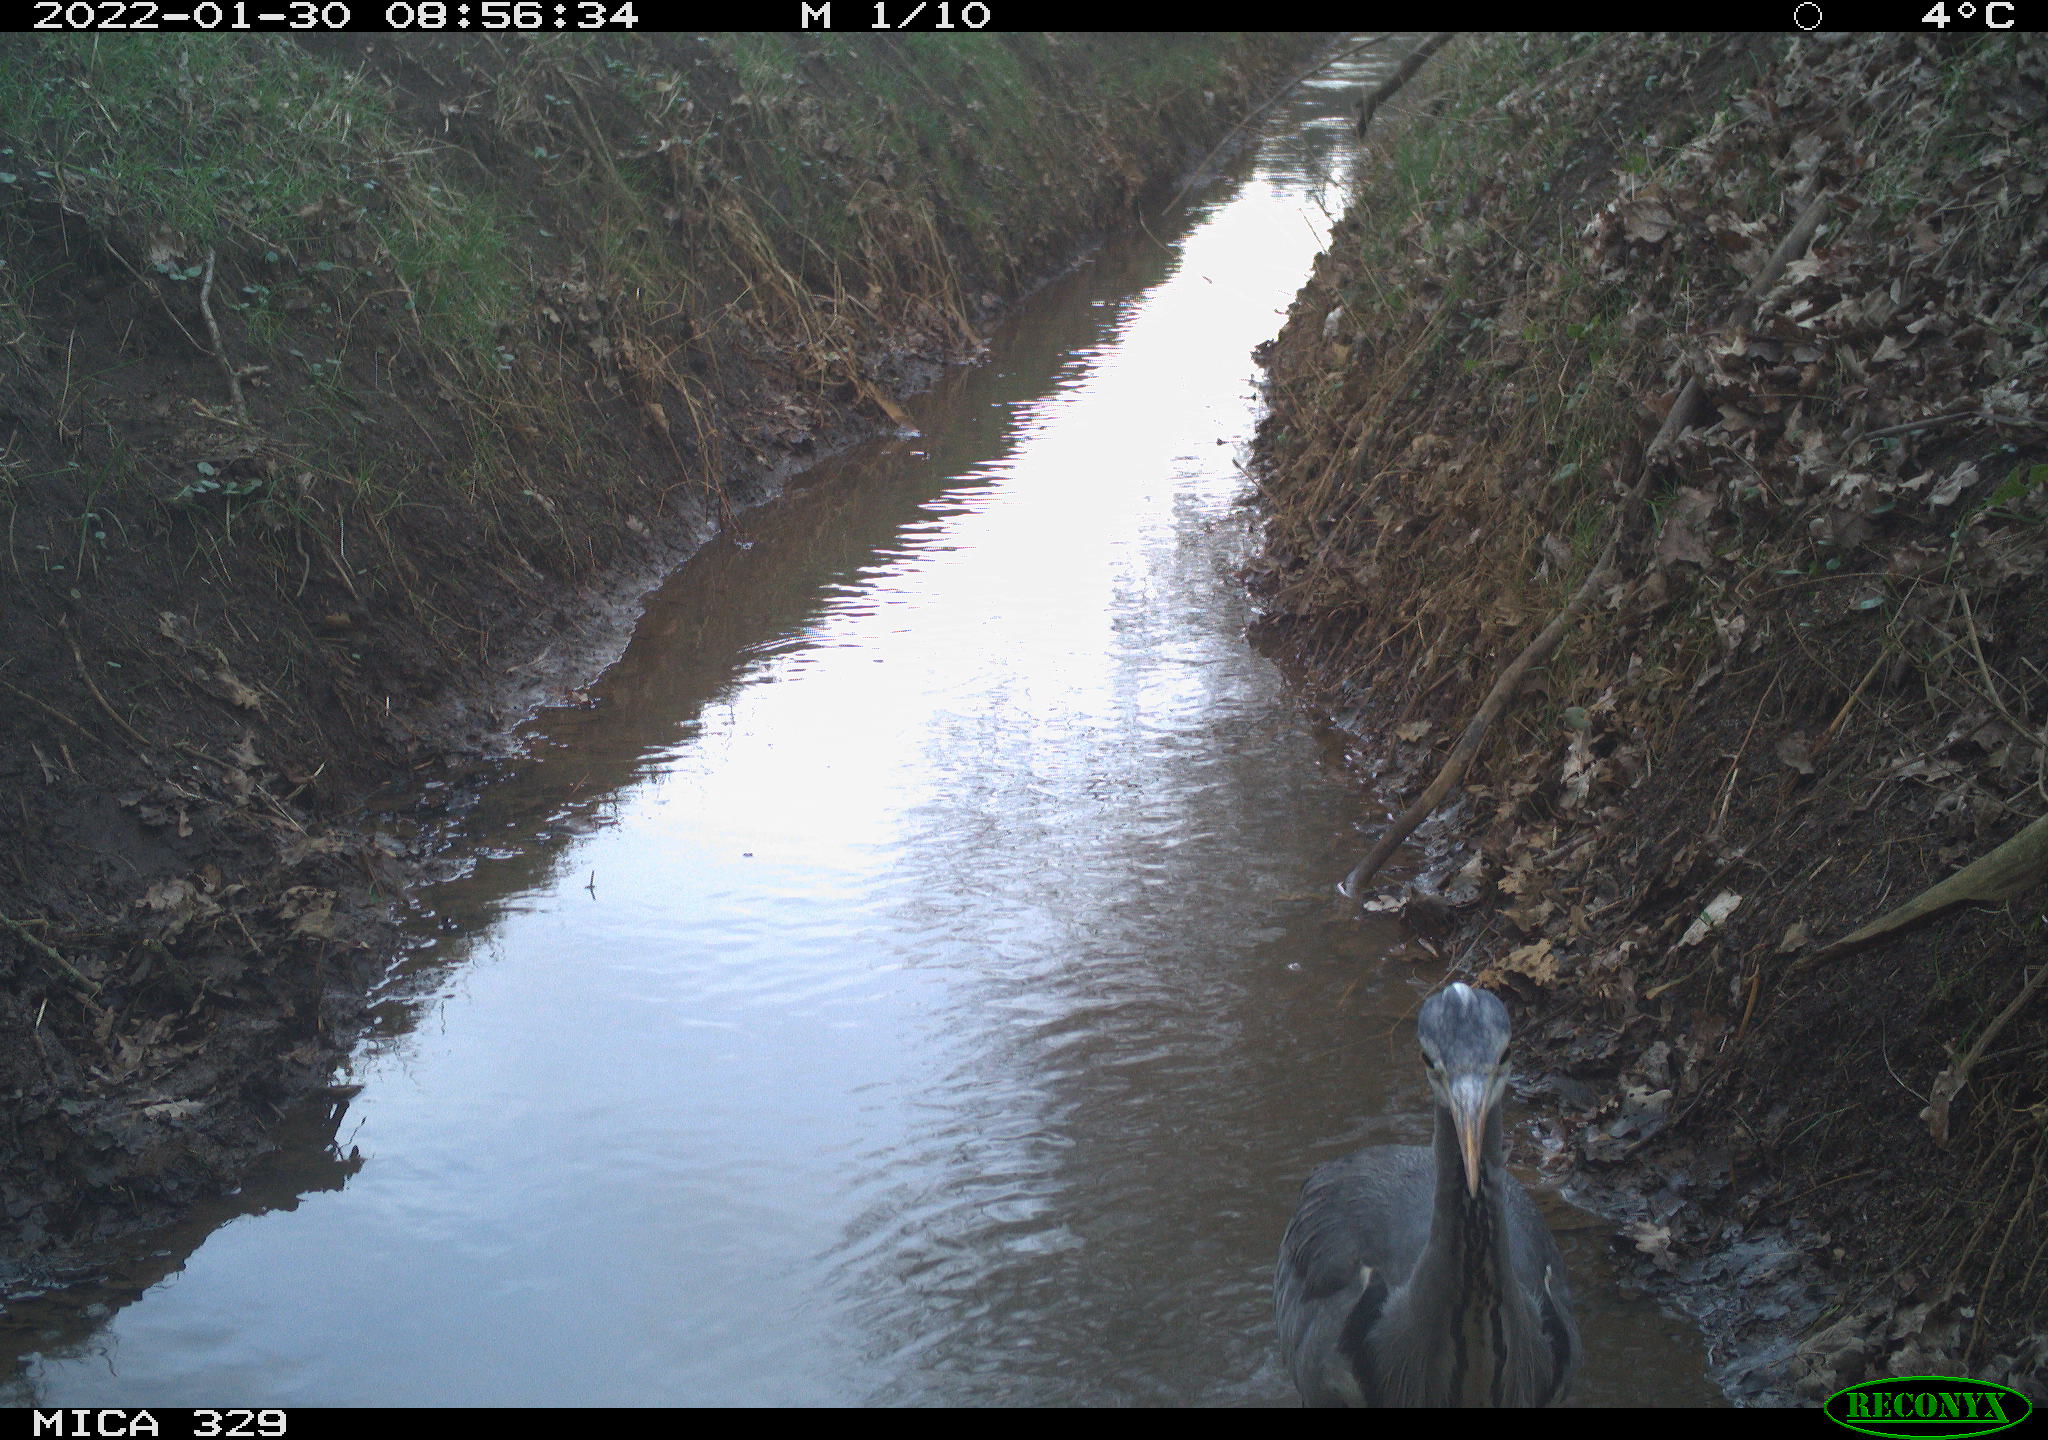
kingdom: Animalia
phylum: Chordata
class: Aves
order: Pelecaniformes
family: Ardeidae
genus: Ardea
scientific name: Ardea
